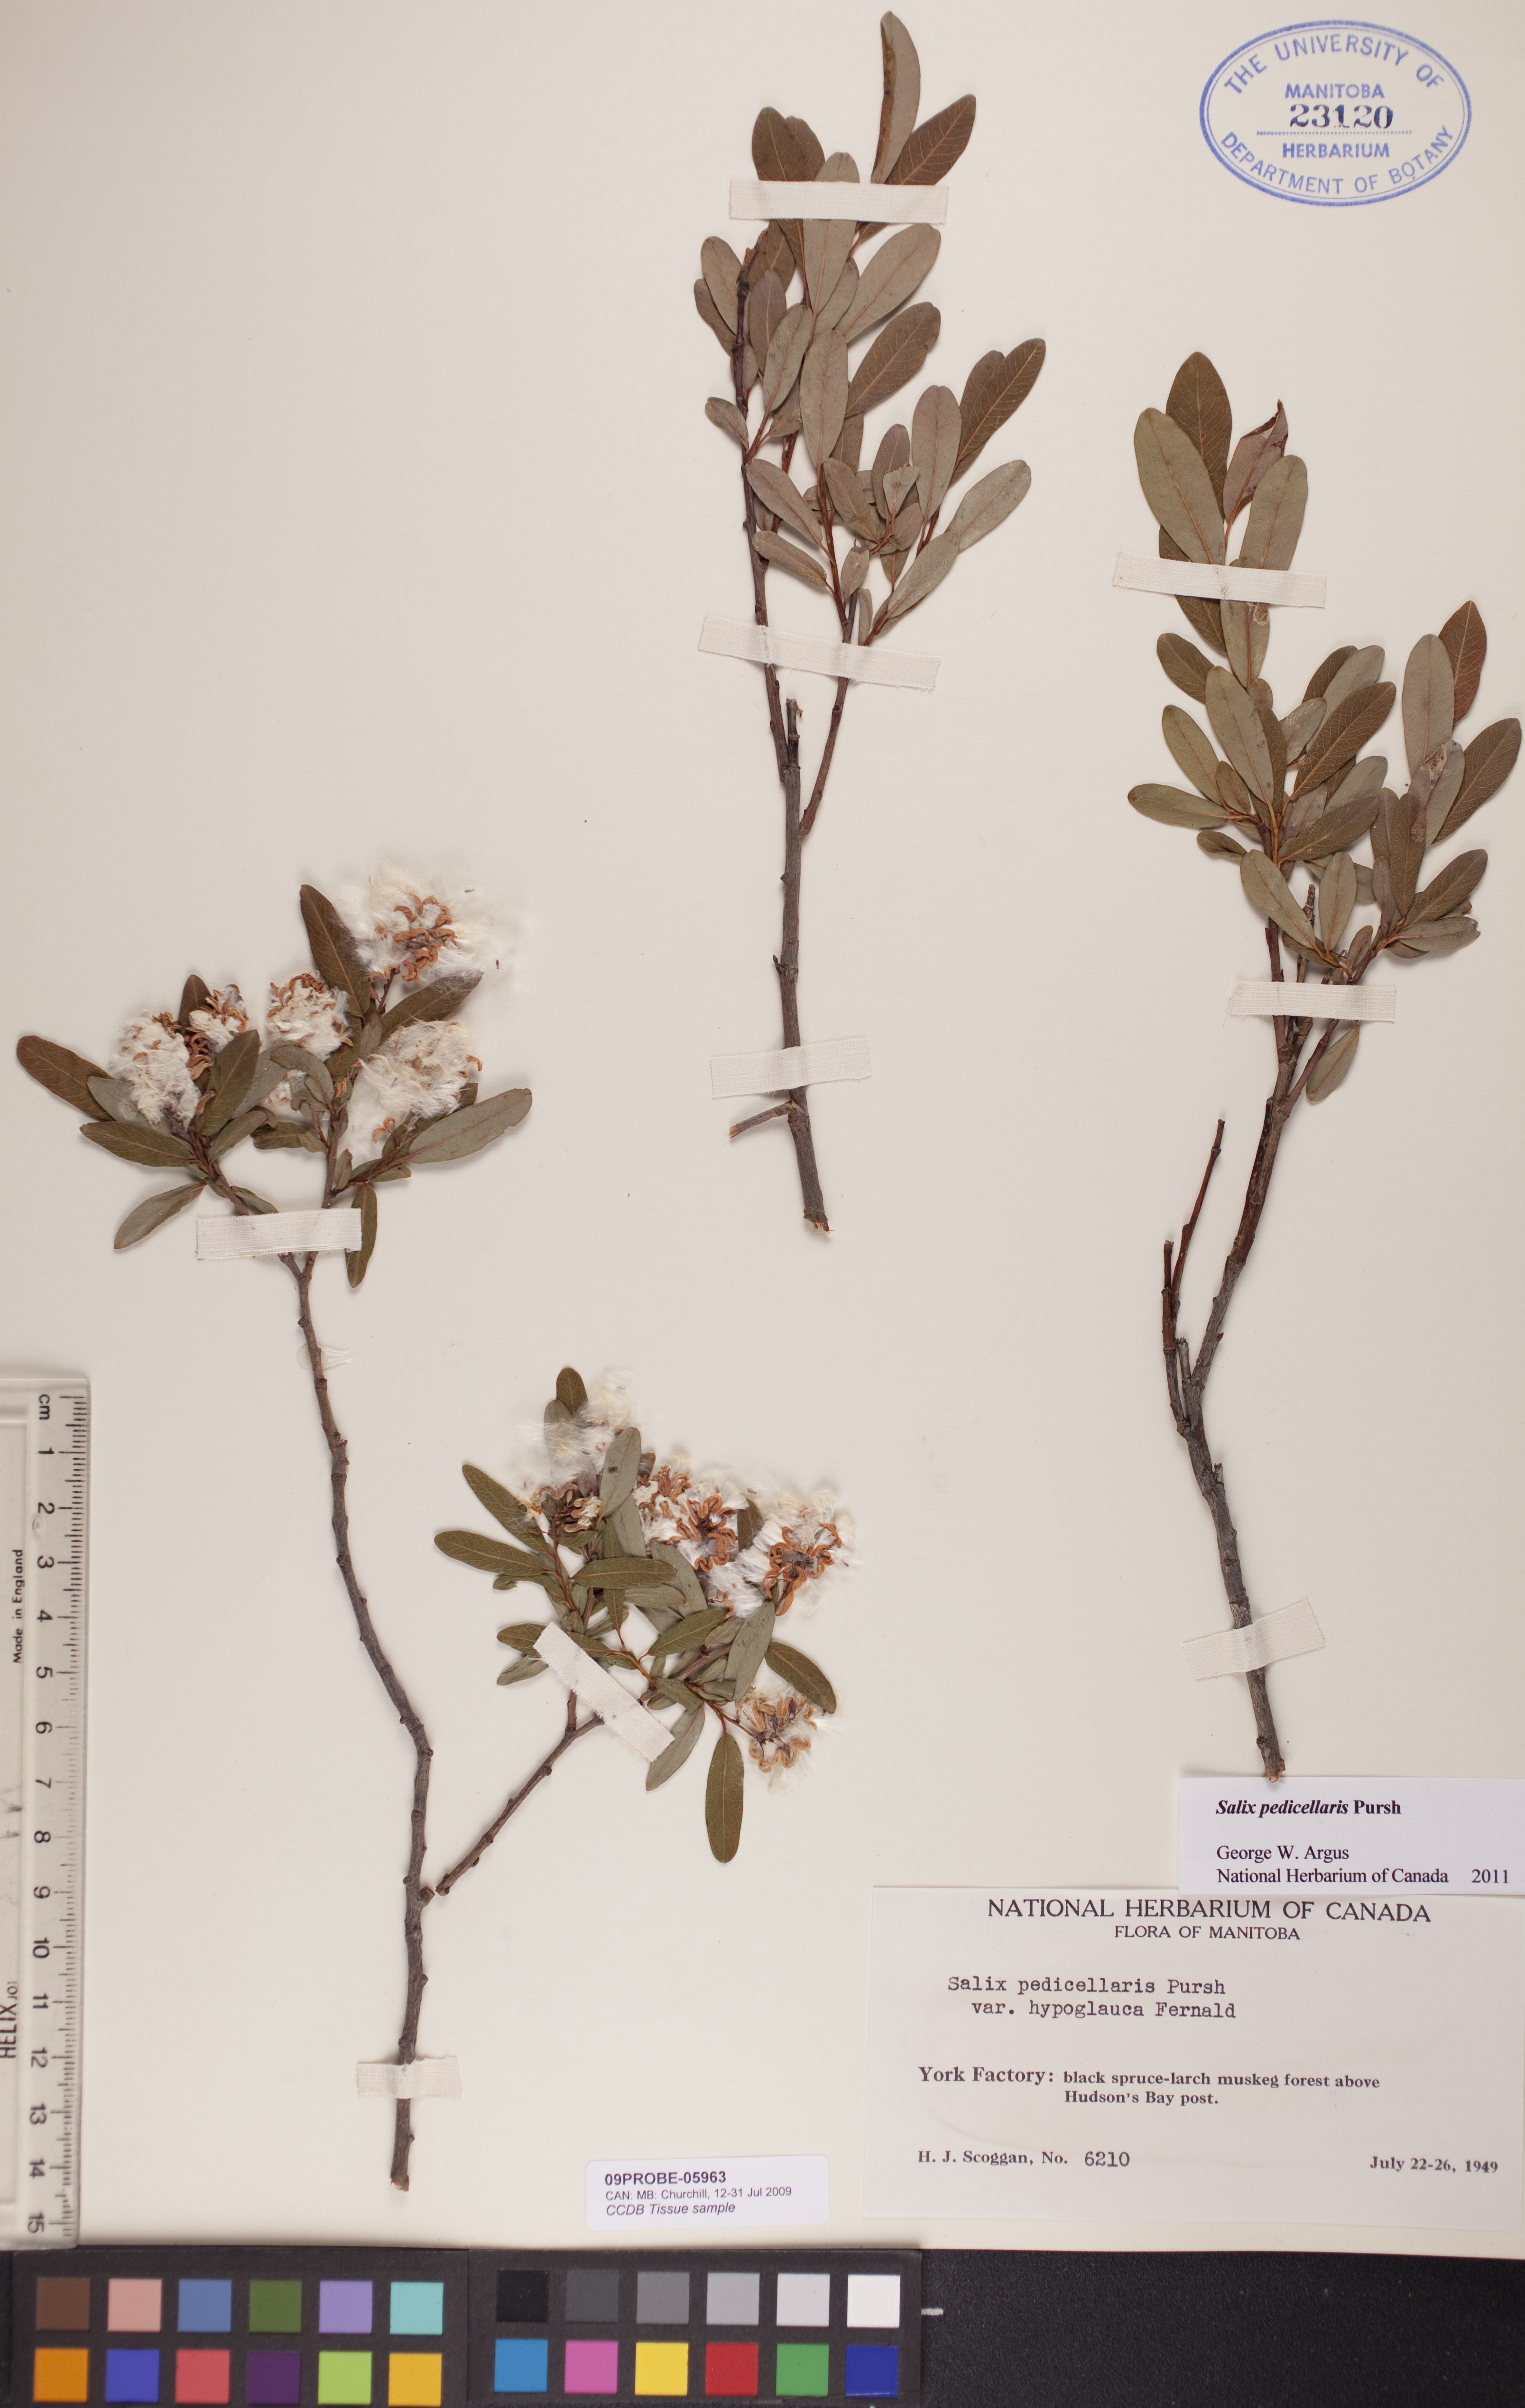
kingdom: Plantae
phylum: Tracheophyta
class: Magnoliopsida
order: Malpighiales
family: Salicaceae
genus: Salix
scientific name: Salix pedicellaris
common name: Bog willow
